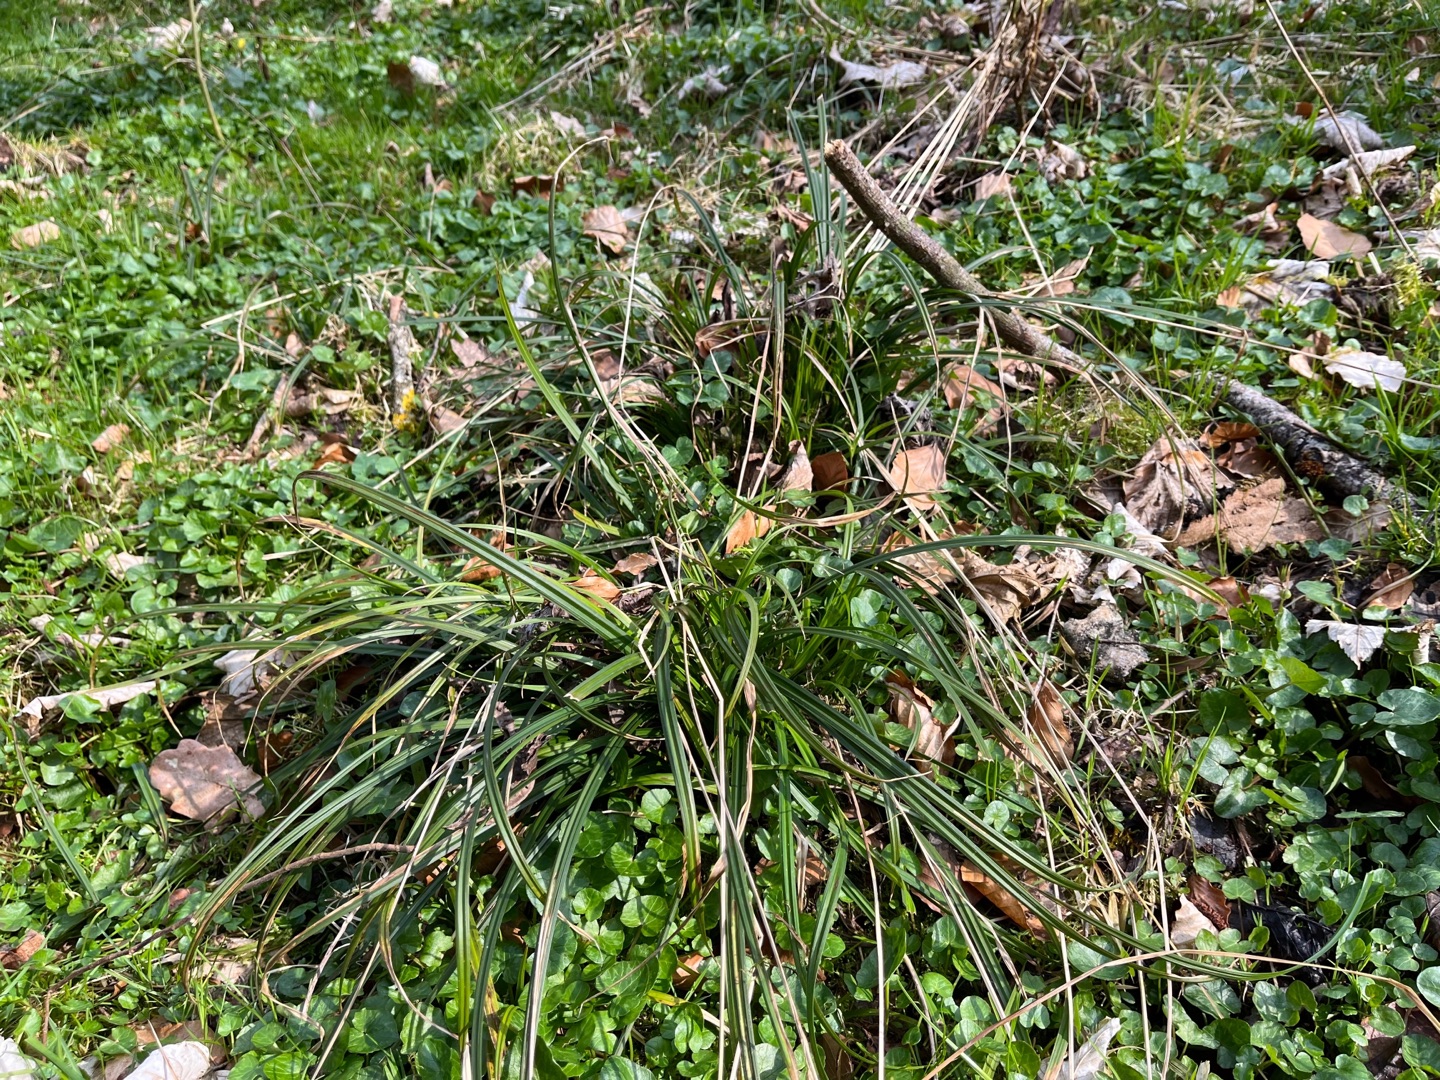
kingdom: Plantae
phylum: Tracheophyta
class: Liliopsida
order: Poales
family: Cyperaceae
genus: Carex
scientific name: Carex sylvatica
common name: Skov-star
